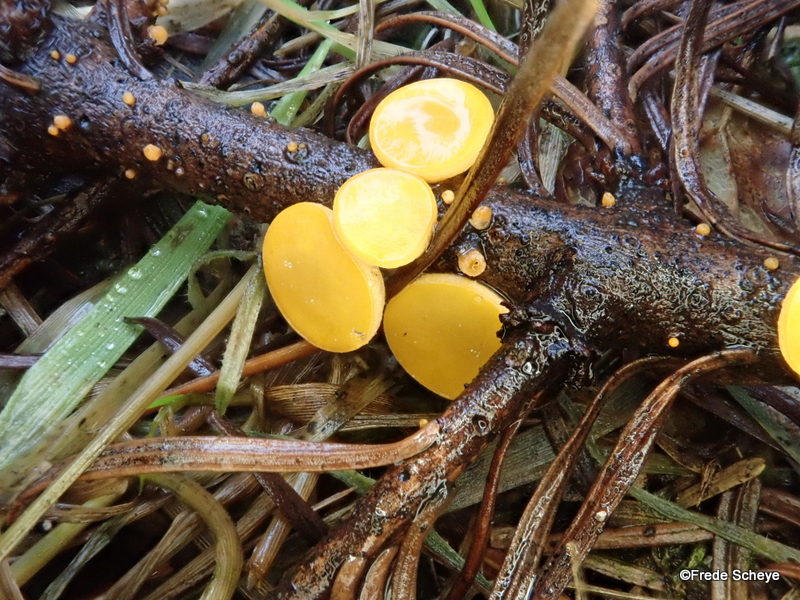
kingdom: Fungi
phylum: Ascomycota
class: Pezizomycetes
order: Pezizales
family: Sarcoscyphaceae
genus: Pithya
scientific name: Pithya vulgaris
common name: stor dukatbæger
